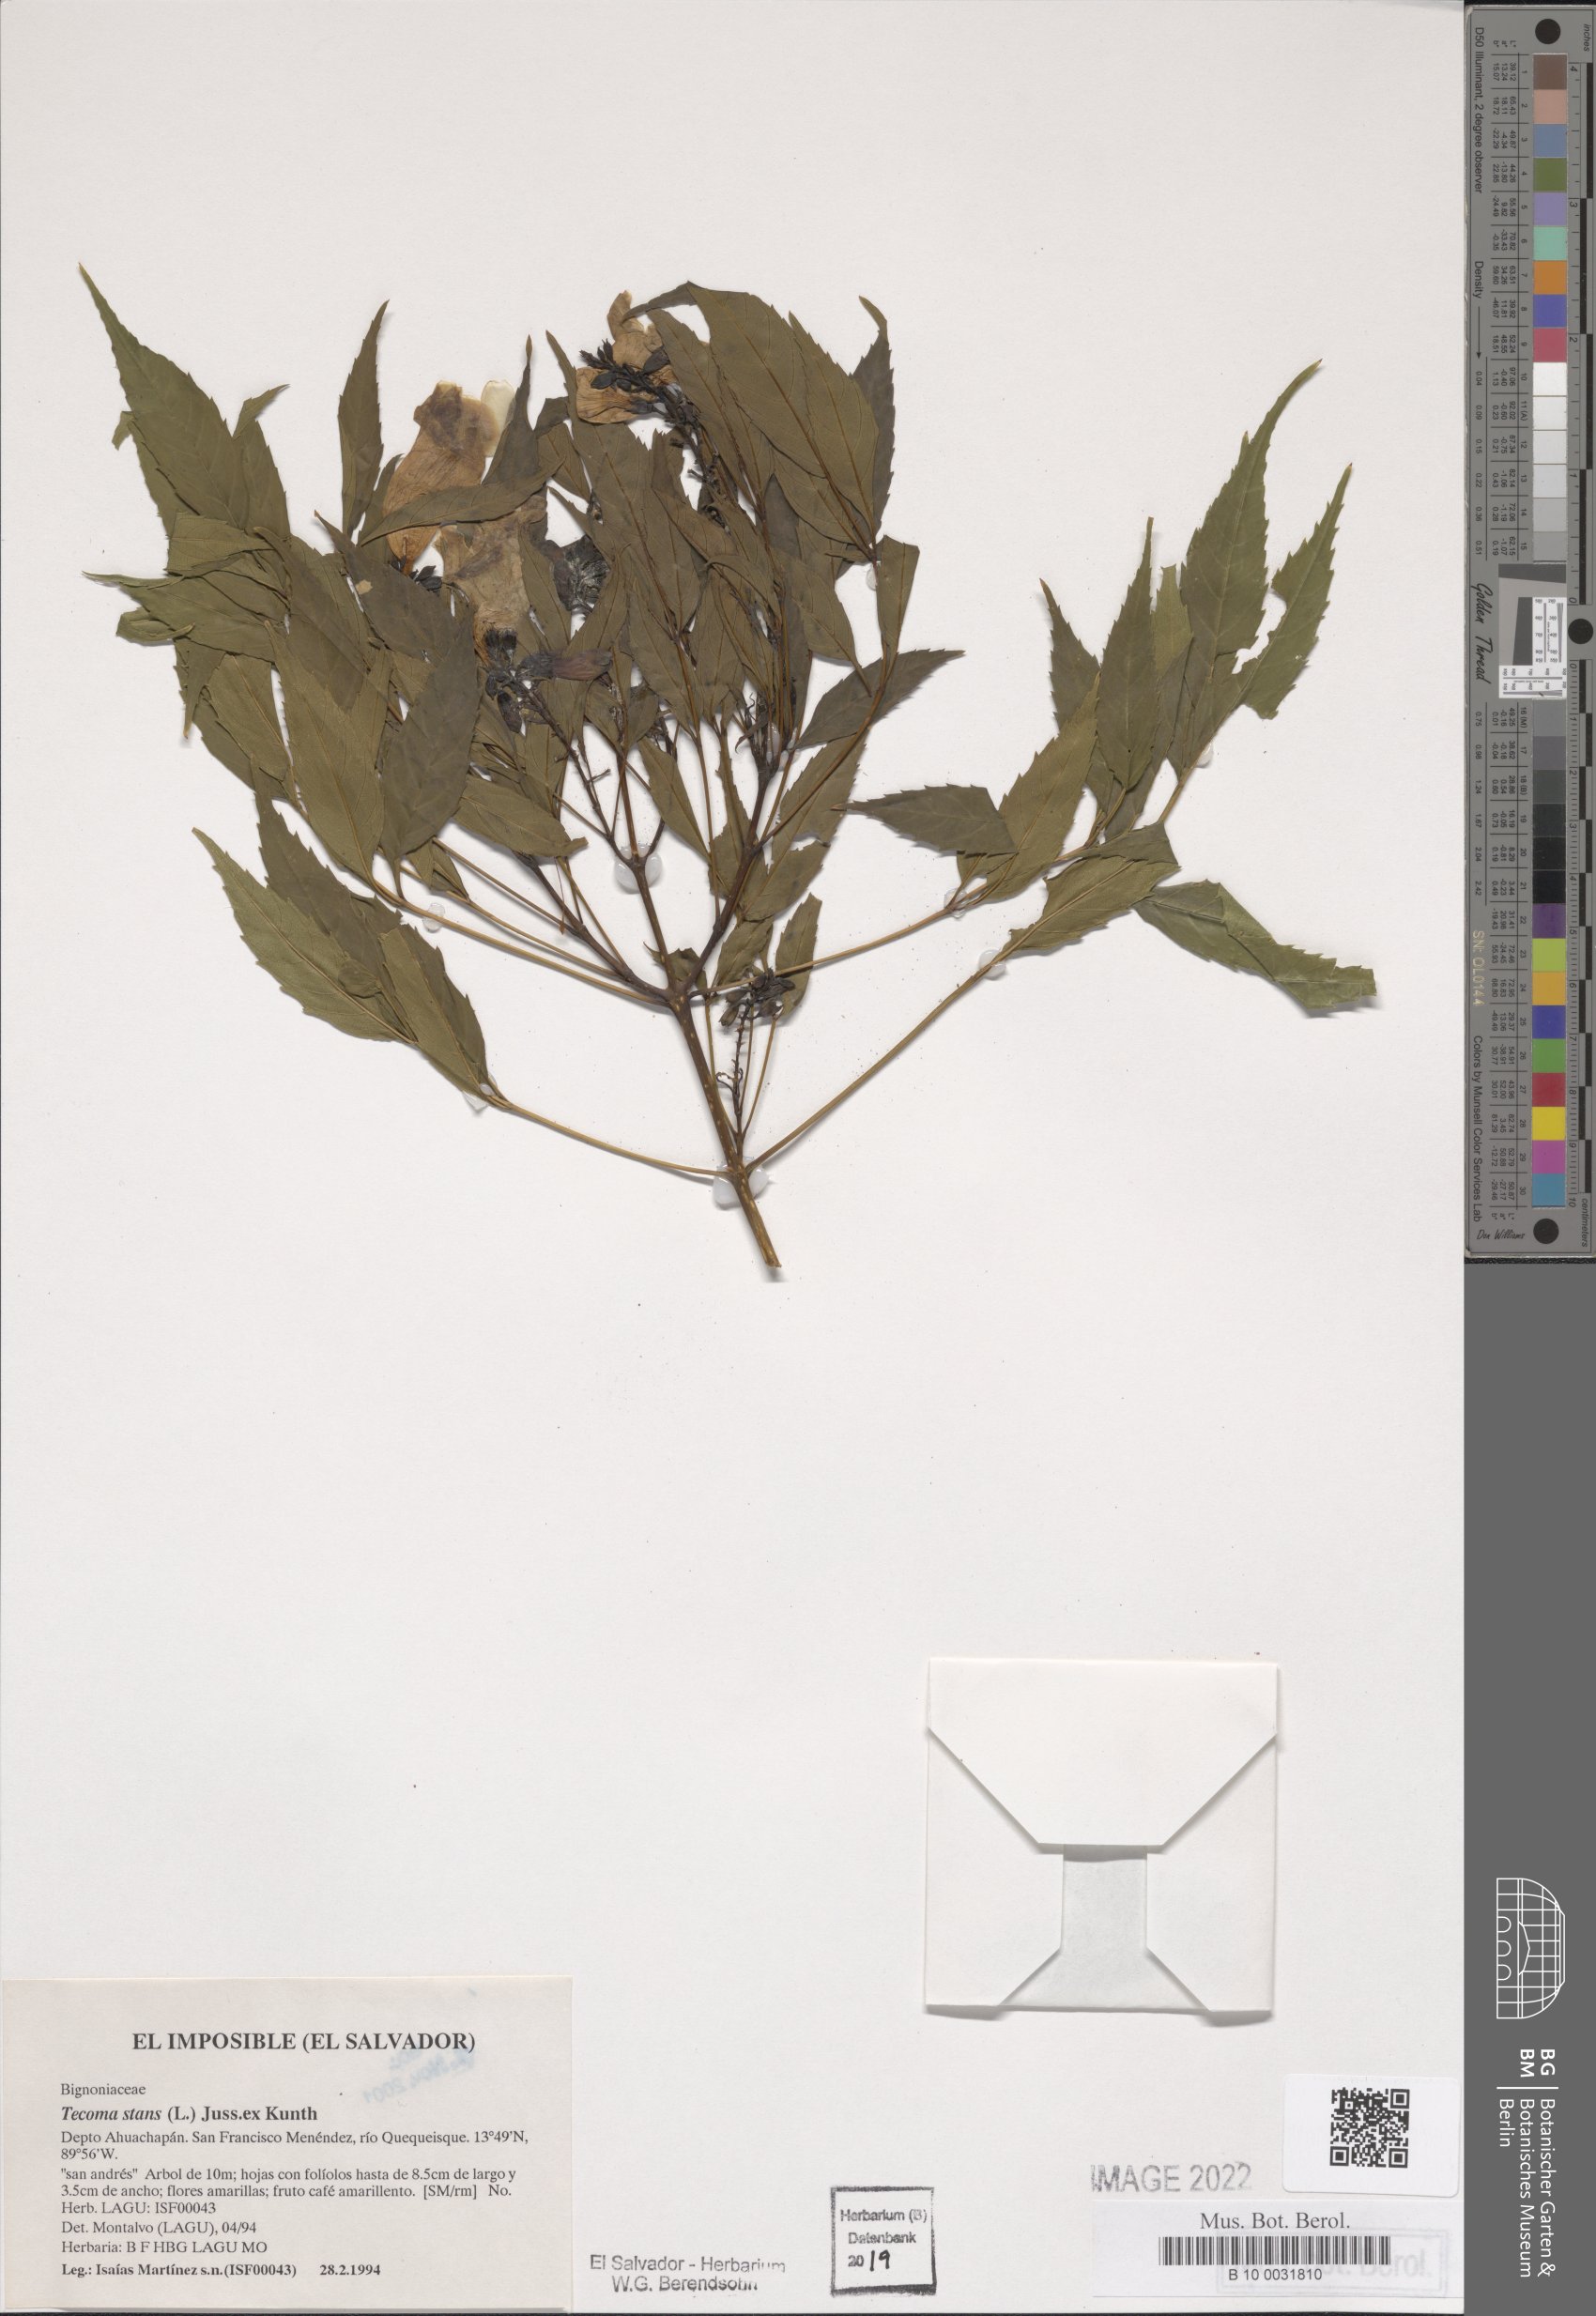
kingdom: Plantae
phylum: Tracheophyta
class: Magnoliopsida
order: Lamiales
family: Bignoniaceae
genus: Tecoma
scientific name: Tecoma stans
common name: Yellow trumpetbush
